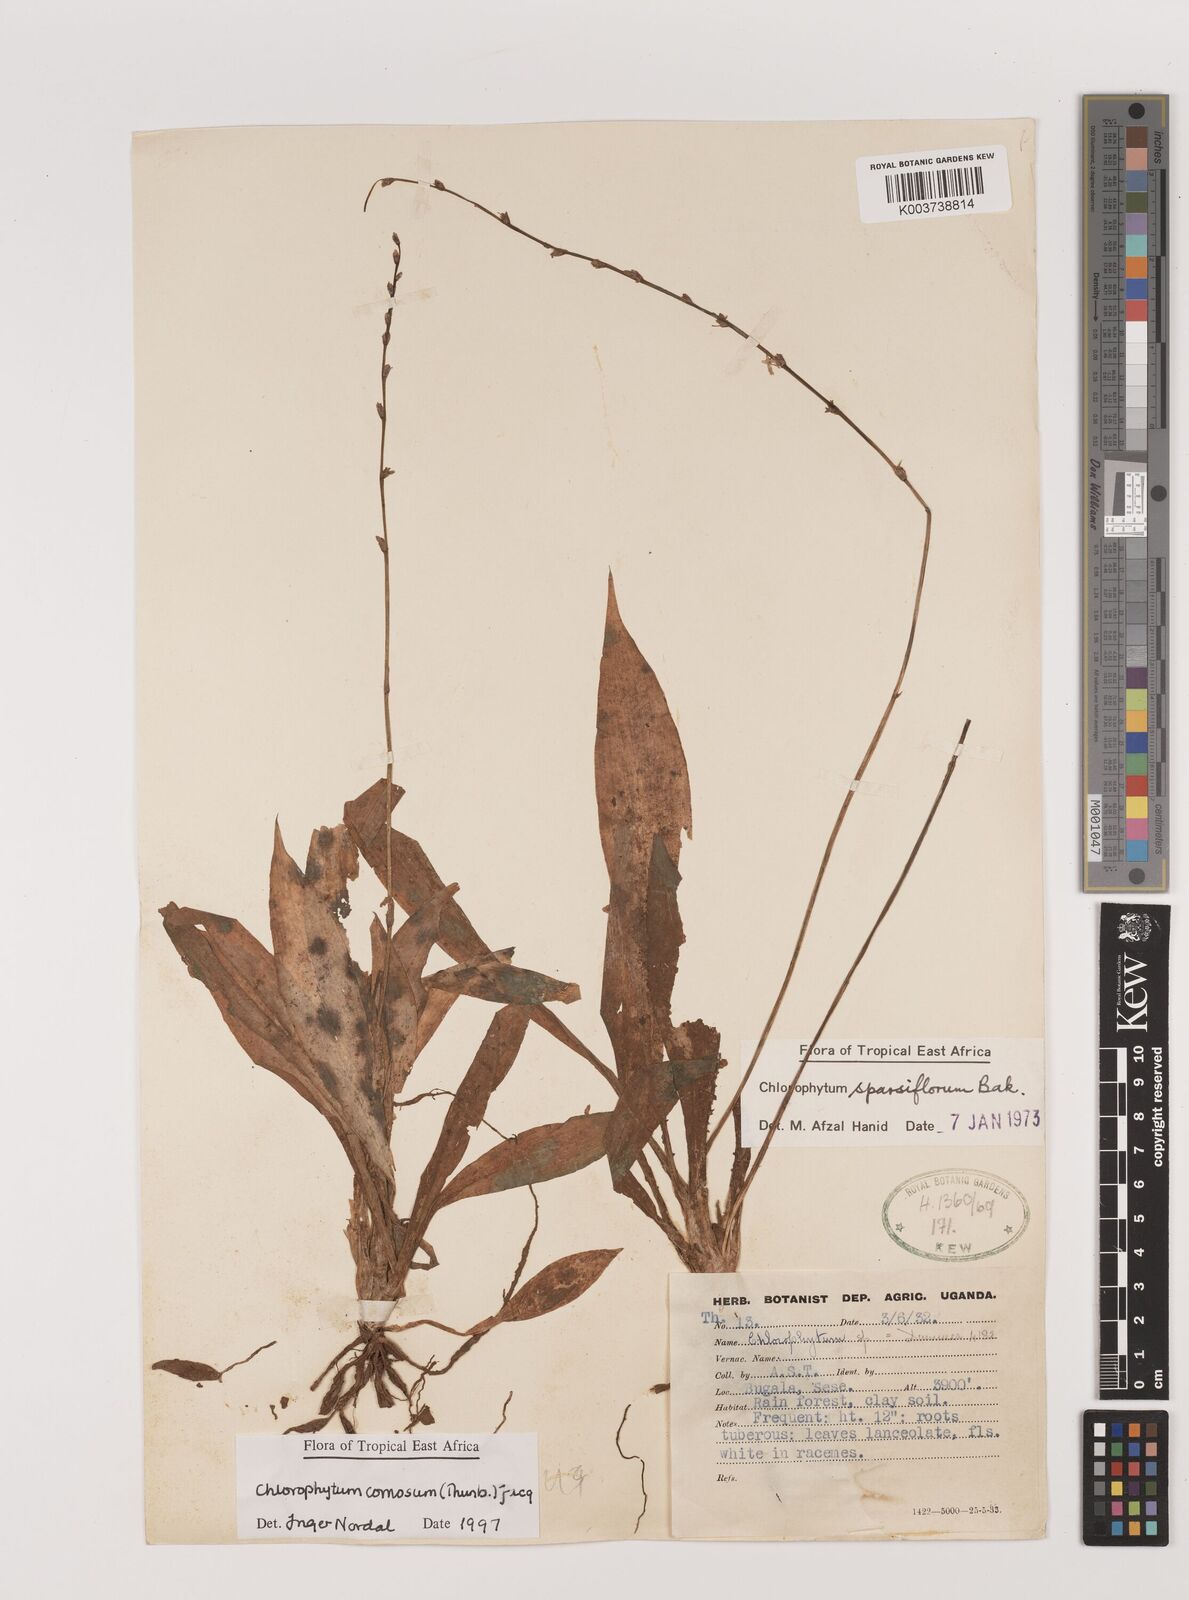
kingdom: Plantae
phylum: Tracheophyta
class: Liliopsida
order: Asparagales
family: Asparagaceae
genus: Chlorophytum
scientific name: Chlorophytum comosum
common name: Spider plant
